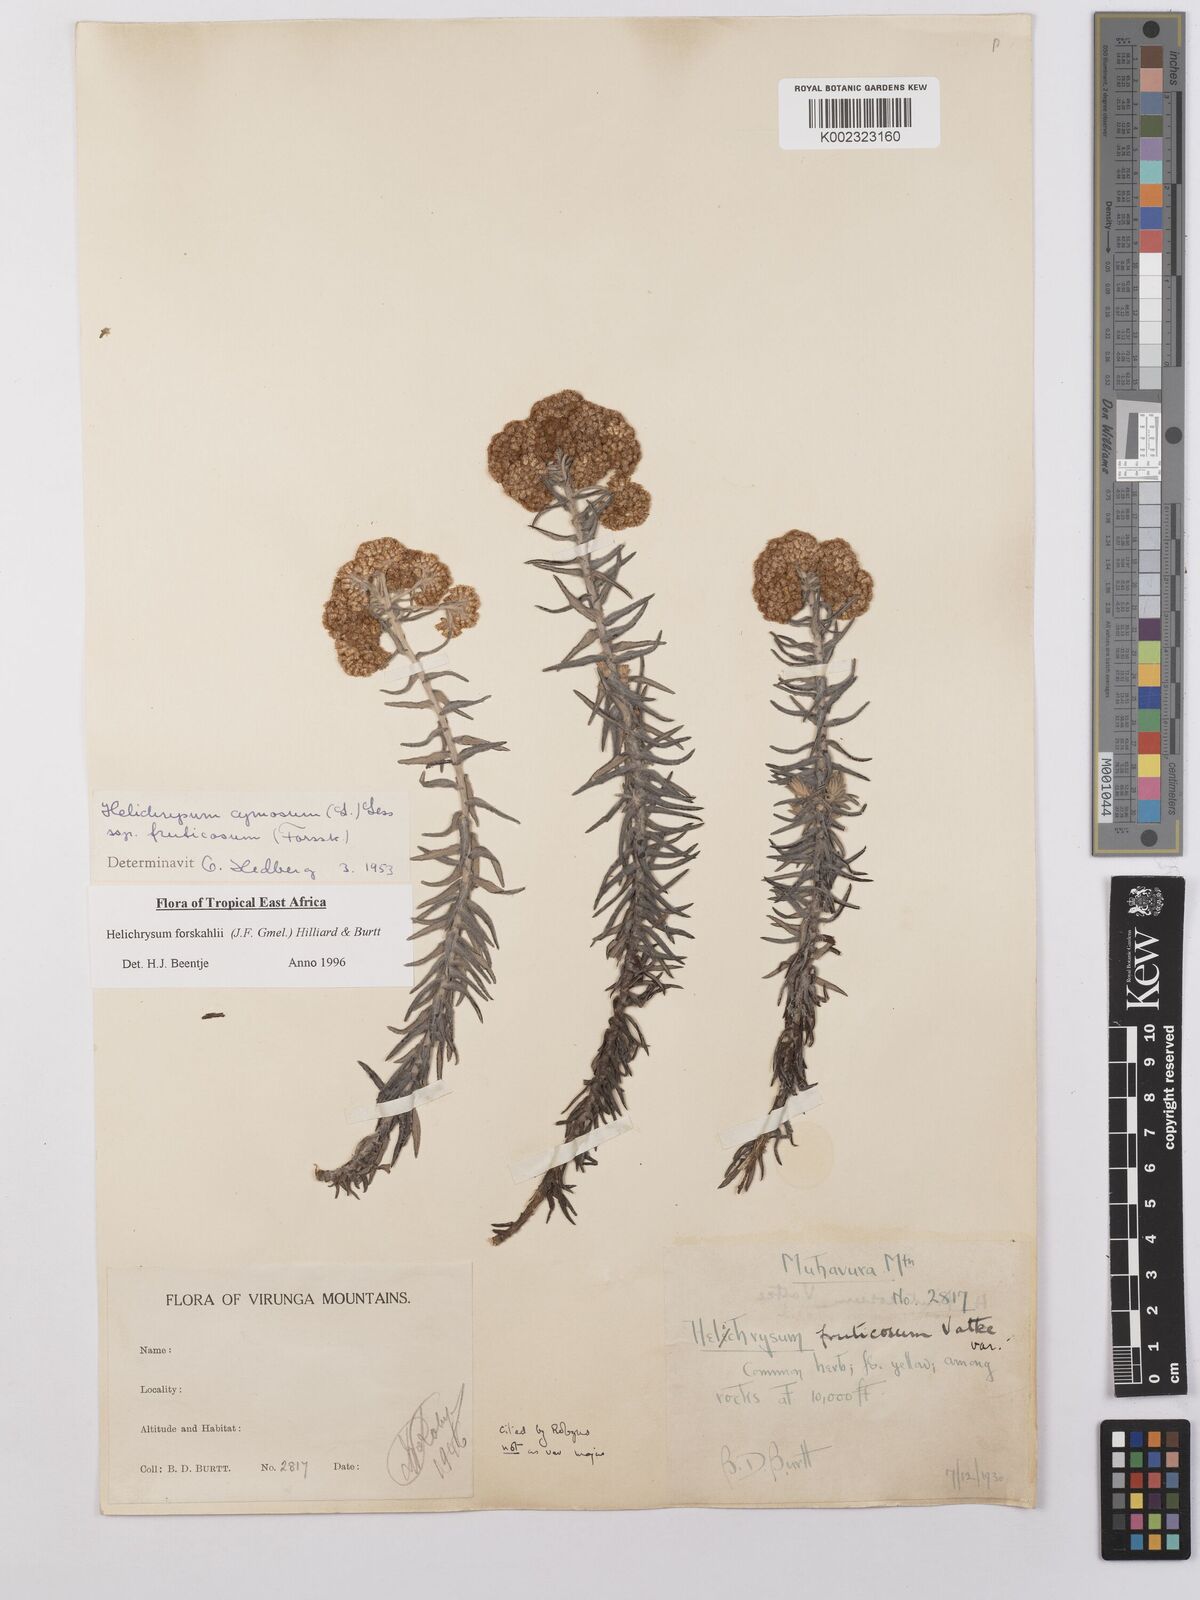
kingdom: Plantae
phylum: Tracheophyta
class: Magnoliopsida
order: Asterales
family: Asteraceae
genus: Helichrysum
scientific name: Helichrysum forskahlii
